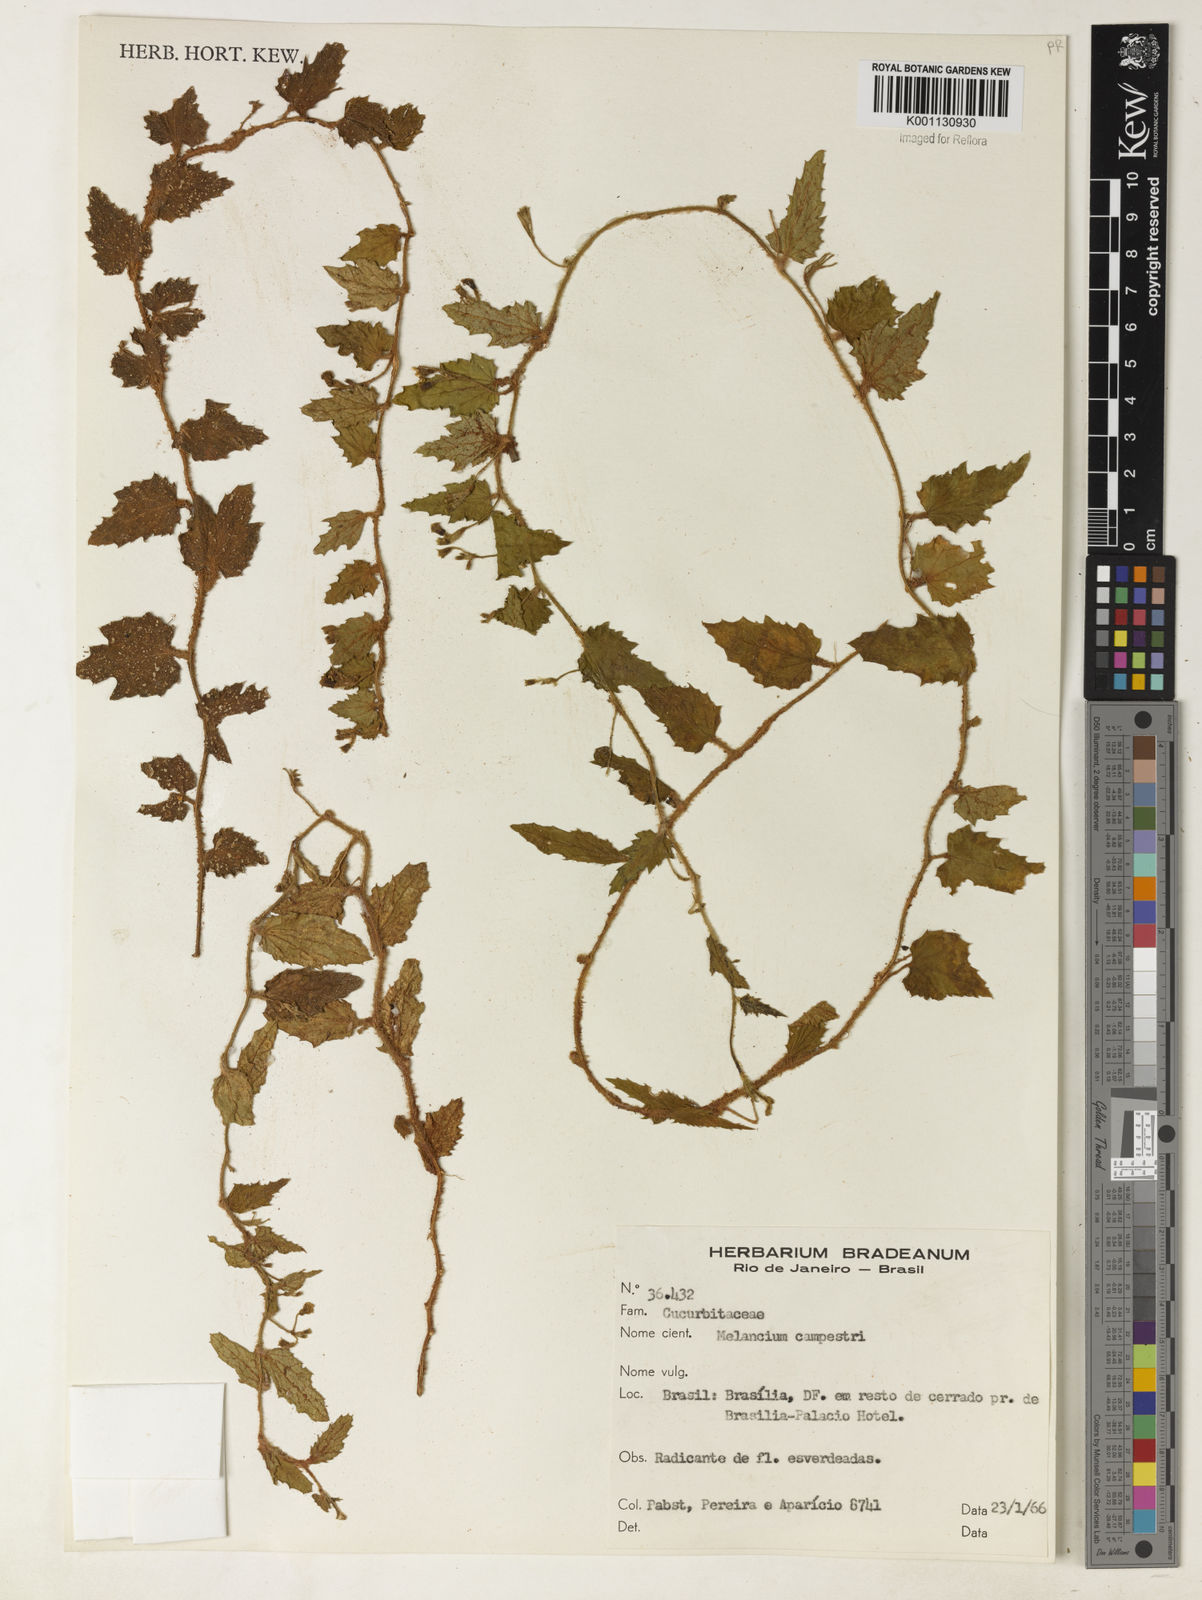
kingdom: Plantae
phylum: Tracheophyta
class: Magnoliopsida
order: Cucurbitales
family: Cucurbitaceae
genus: Melothria
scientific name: Melothria campestris
